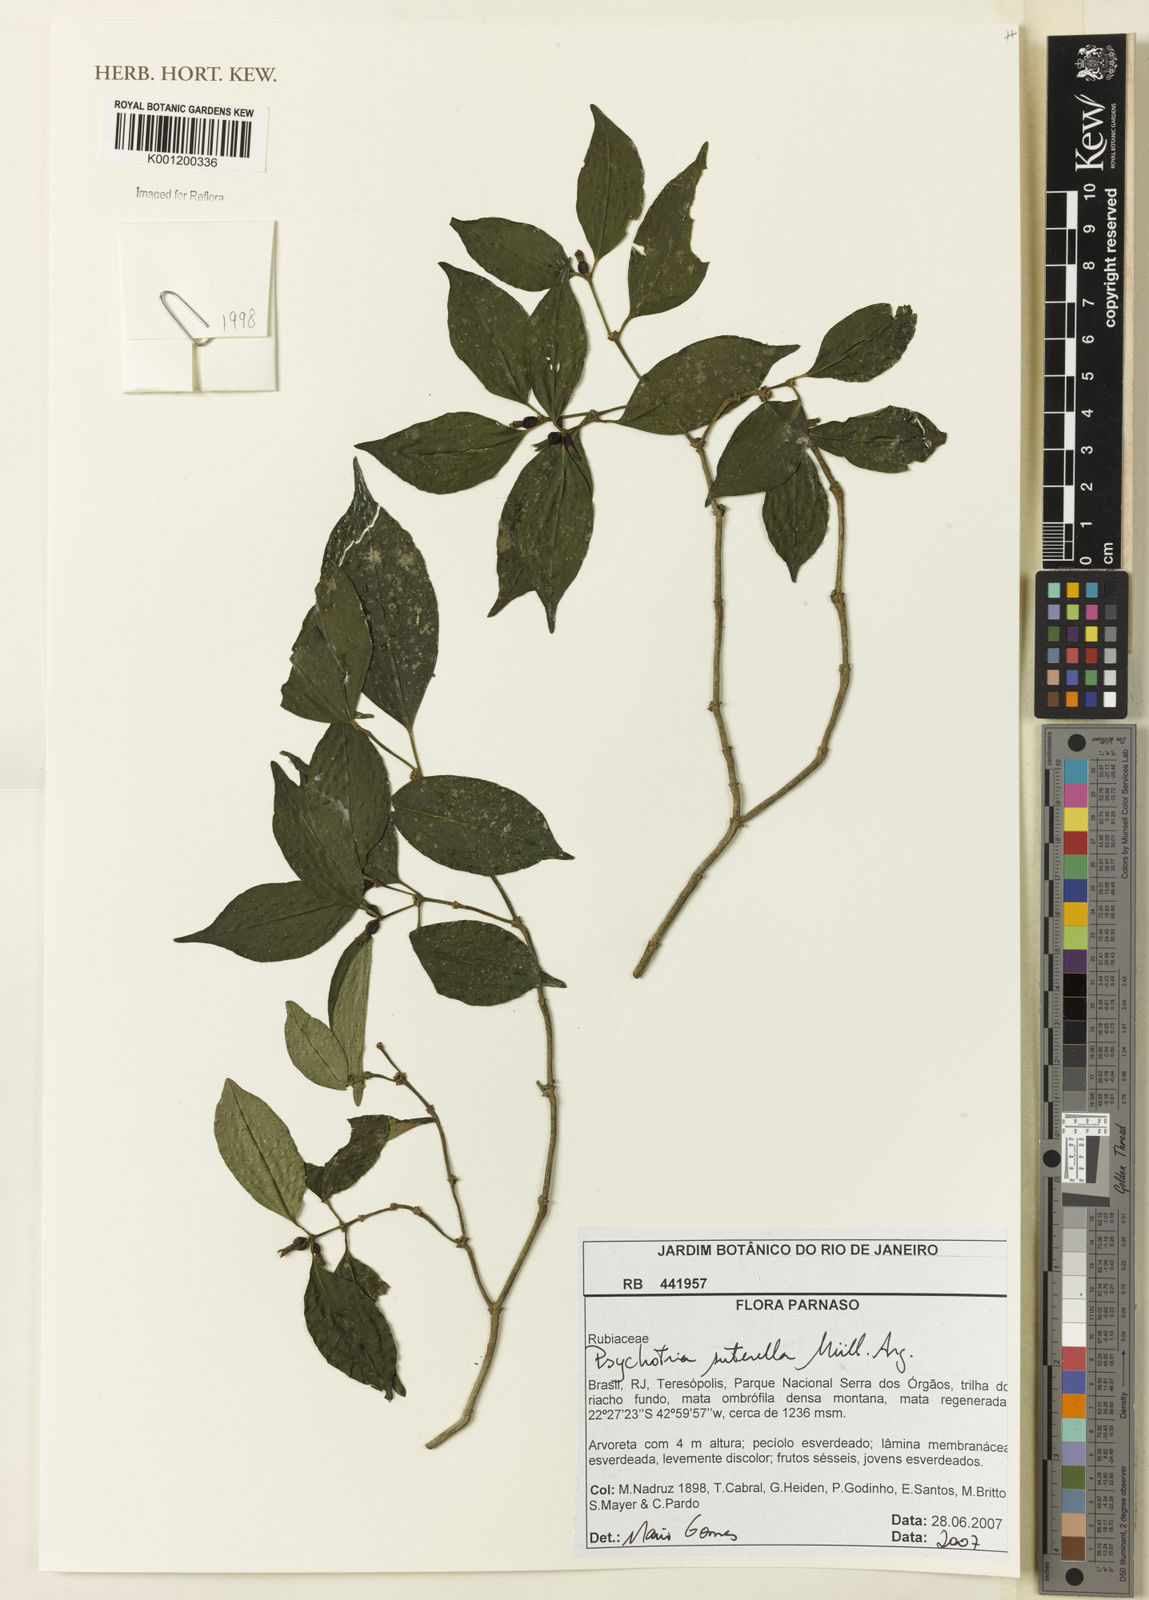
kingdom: Plantae
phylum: Tracheophyta
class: Magnoliopsida
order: Gentianales
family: Rubiaceae
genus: Psychotria
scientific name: Psychotria
